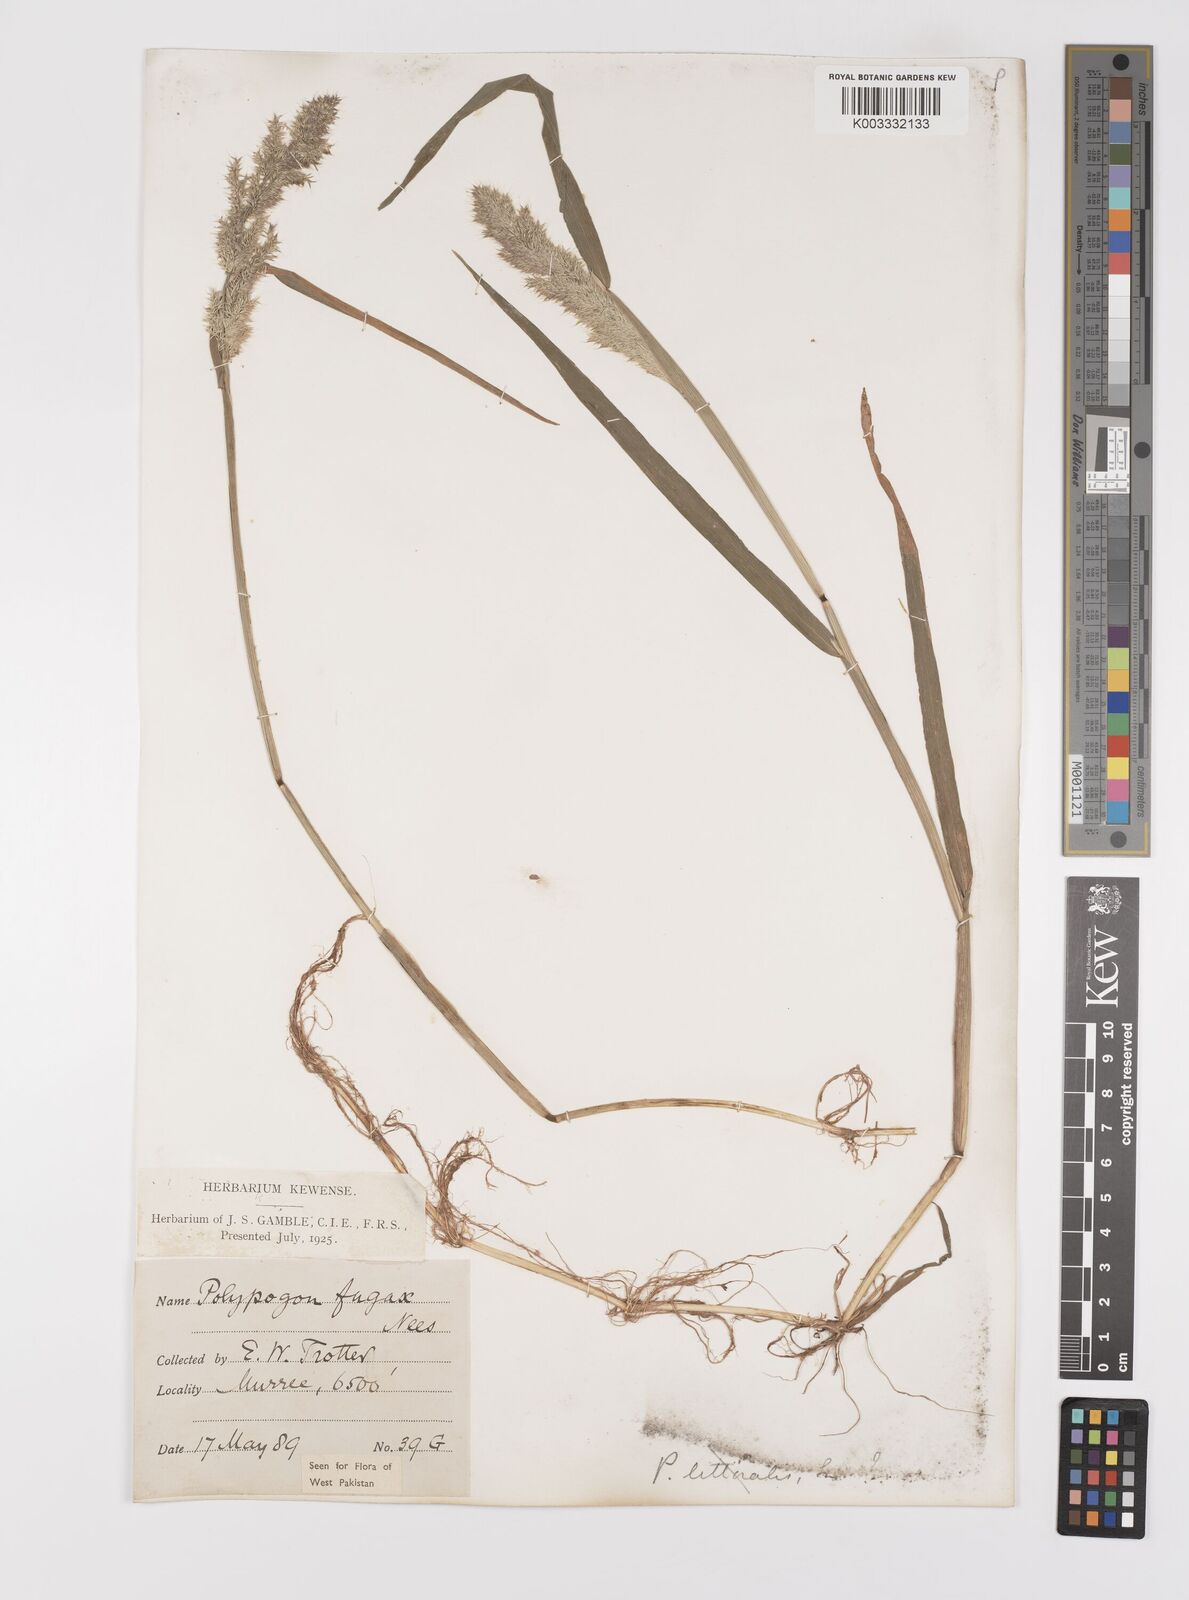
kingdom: Plantae
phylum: Tracheophyta
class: Liliopsida
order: Poales
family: Poaceae
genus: Polypogon
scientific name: Polypogon fugax
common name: Asia minor bluegrass
